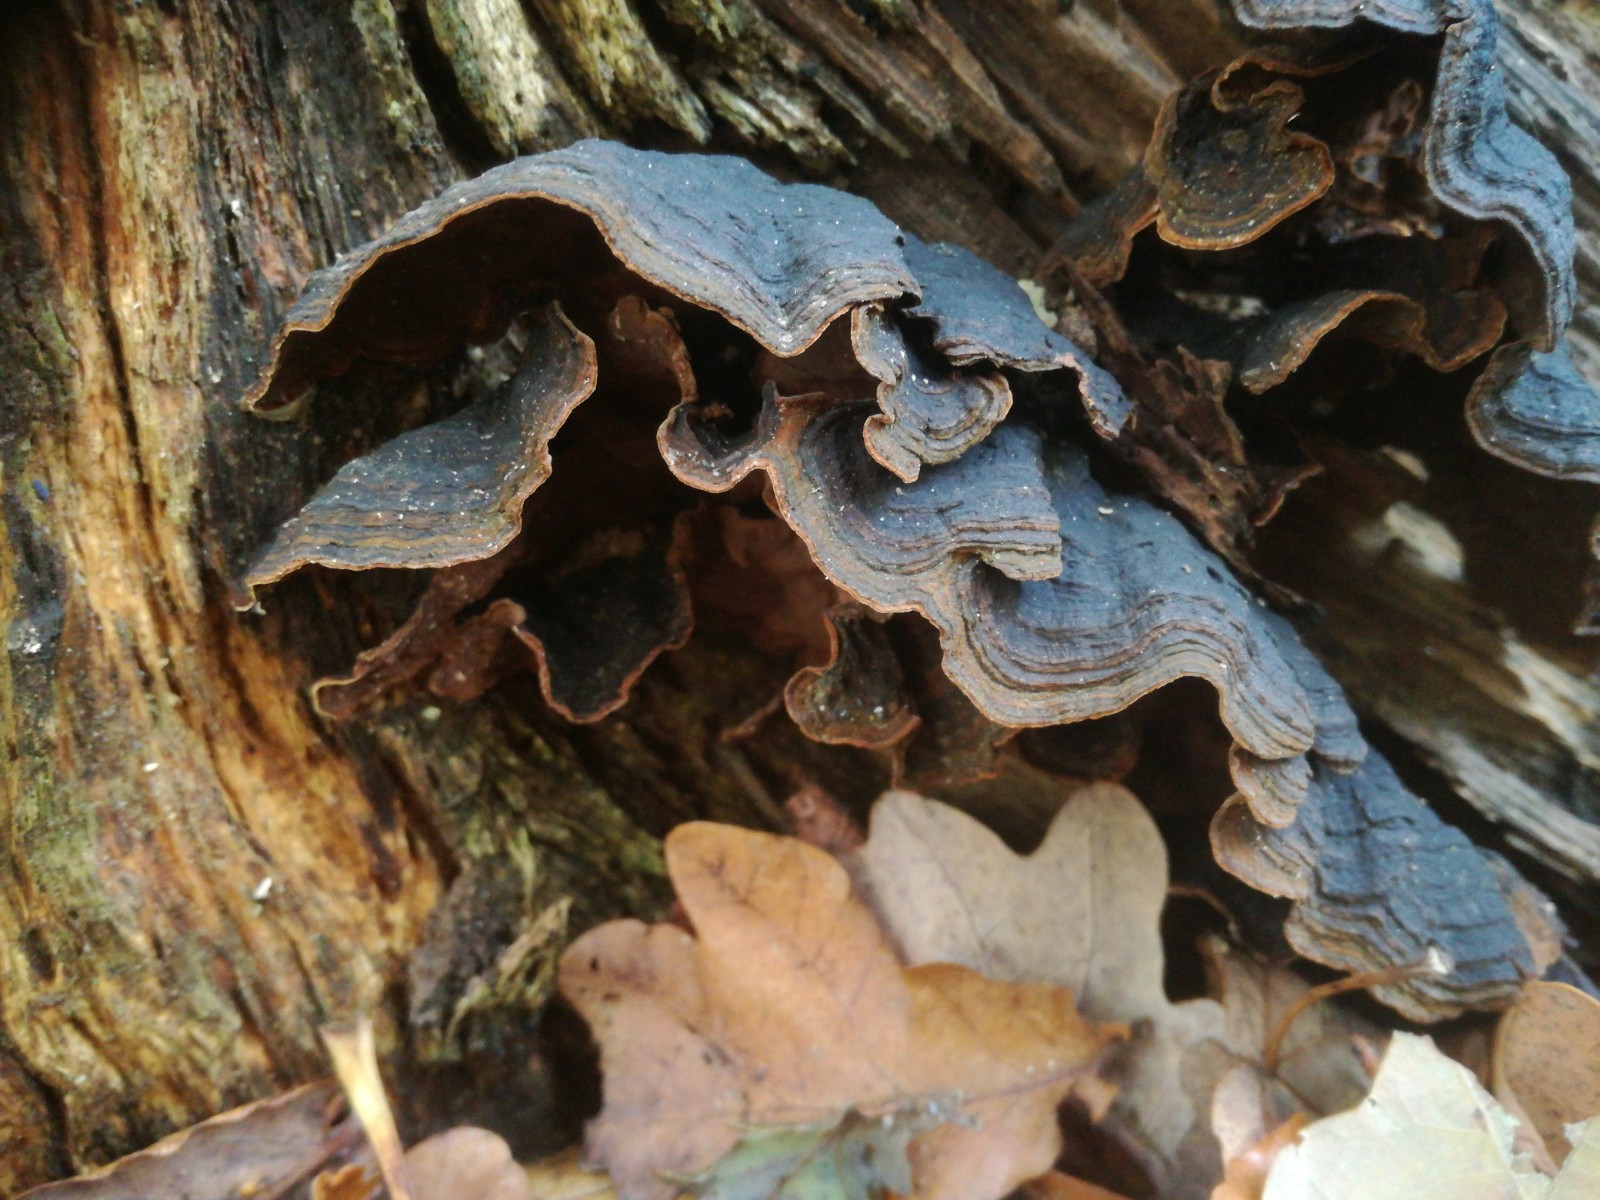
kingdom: Fungi
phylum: Basidiomycota
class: Agaricomycetes
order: Hymenochaetales
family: Hymenochaetaceae
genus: Hymenochaete
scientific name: Hymenochaete rubiginosa
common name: stiv ruslædersvamp
